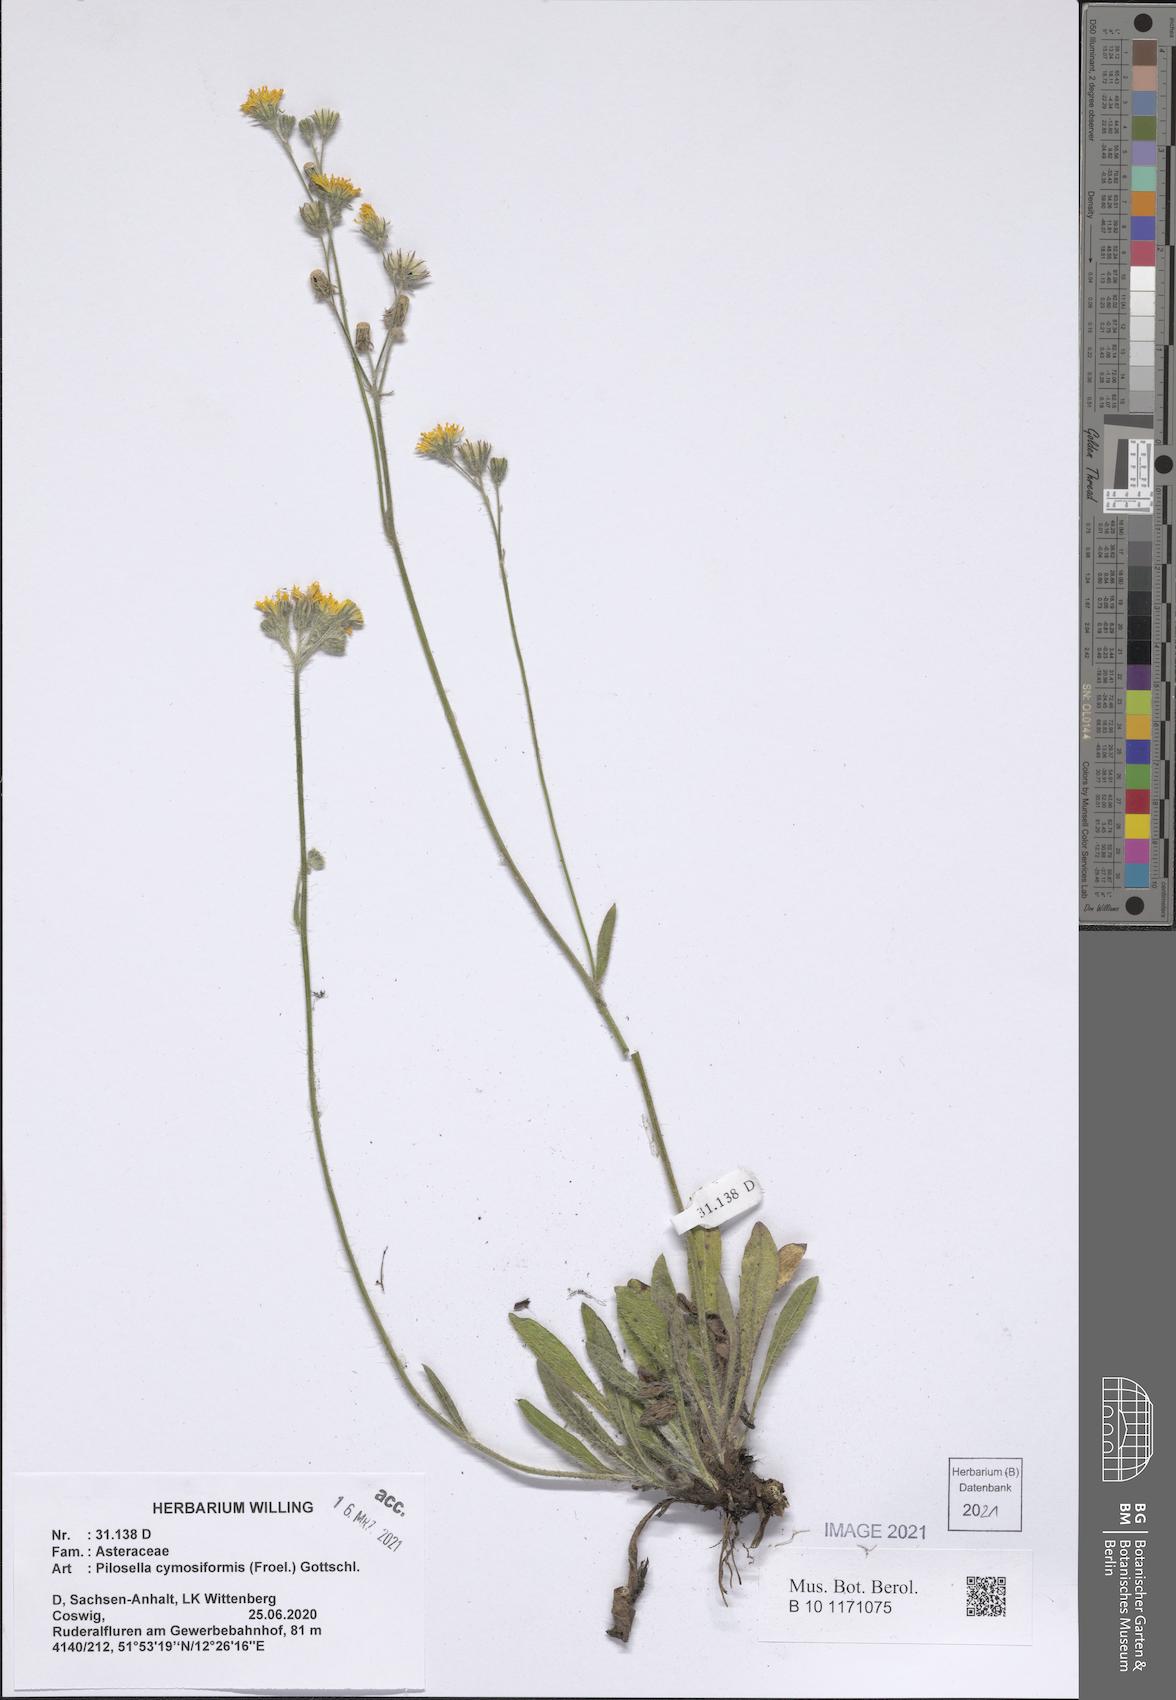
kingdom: Plantae
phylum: Tracheophyta
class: Magnoliopsida
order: Asterales
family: Asteraceae
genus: Pilosella
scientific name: Pilosella cymosiformis
